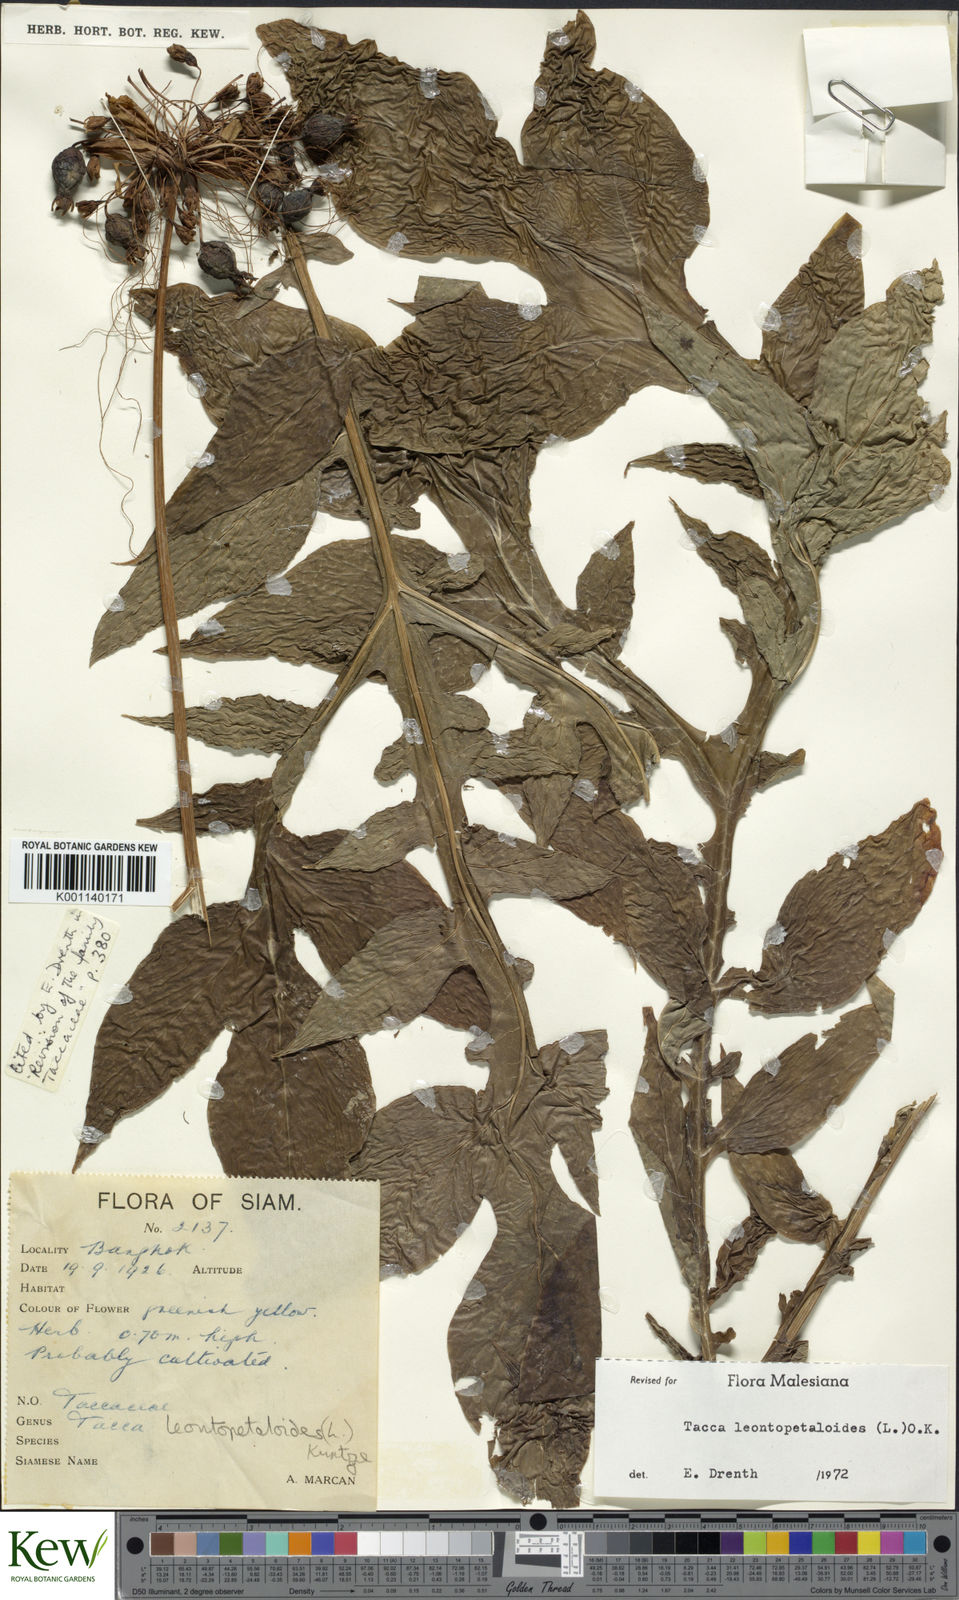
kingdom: Plantae
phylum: Tracheophyta
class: Liliopsida
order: Dioscoreales
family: Dioscoreaceae
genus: Tacca
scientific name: Tacca leontopetaloides
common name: Arrowroot
